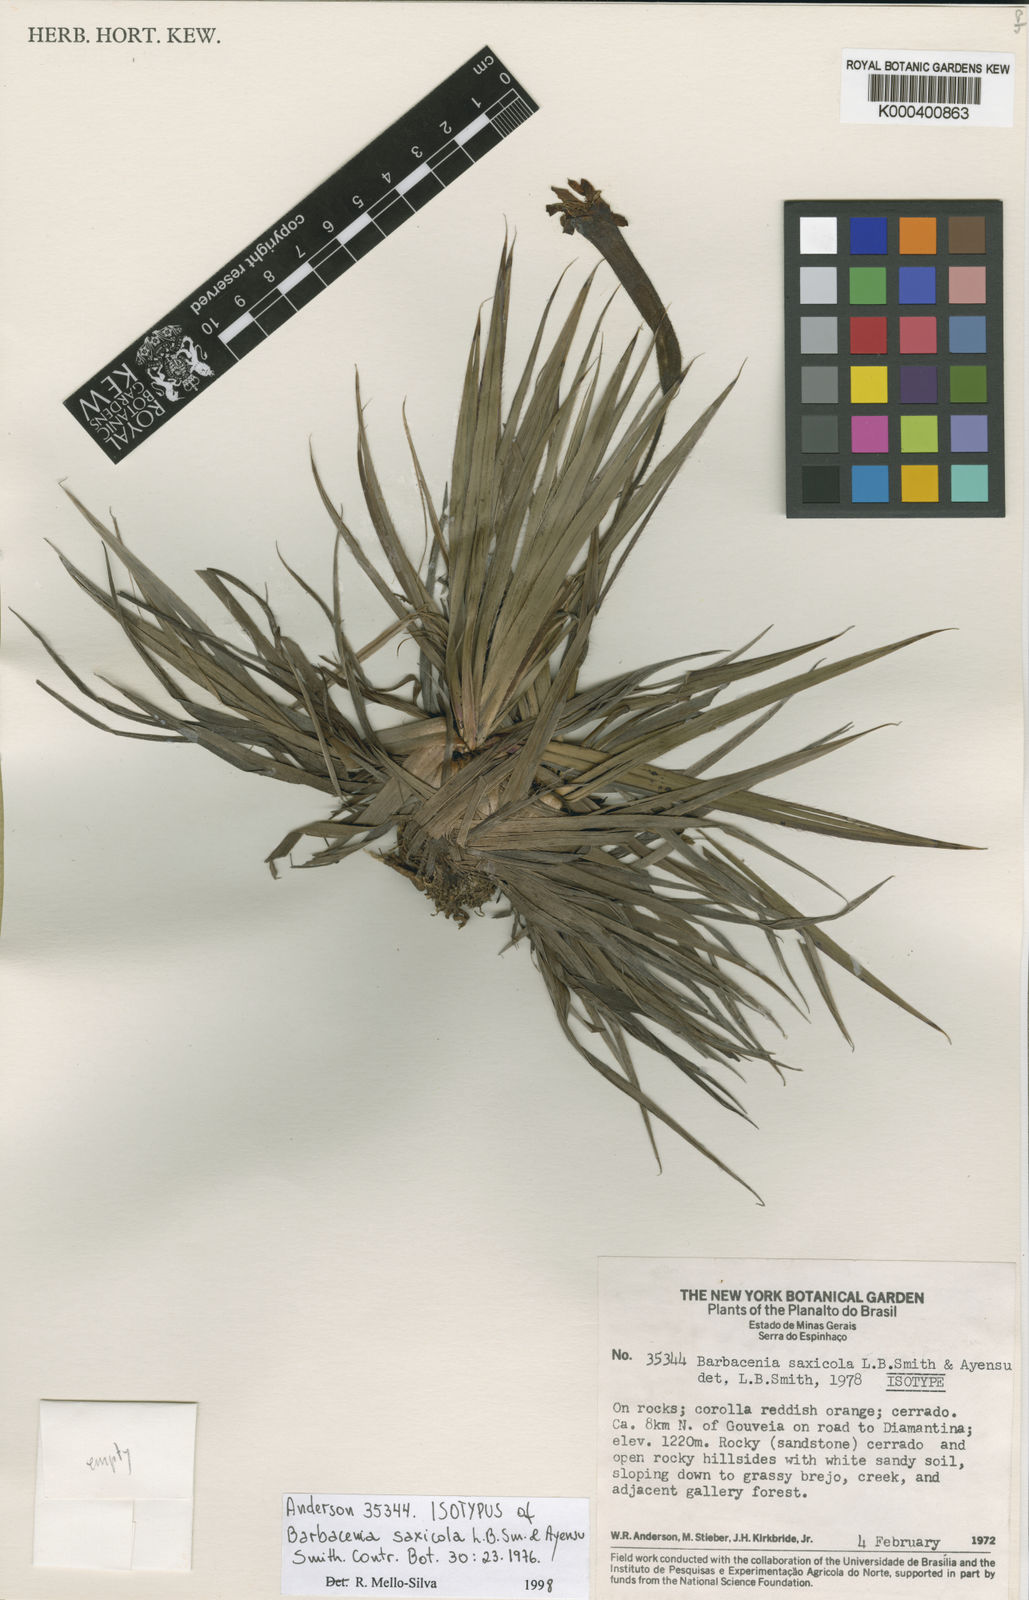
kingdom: Plantae
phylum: Tracheophyta
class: Liliopsida
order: Pandanales
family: Velloziaceae
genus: Barbacenia
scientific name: Barbacenia saxicola
